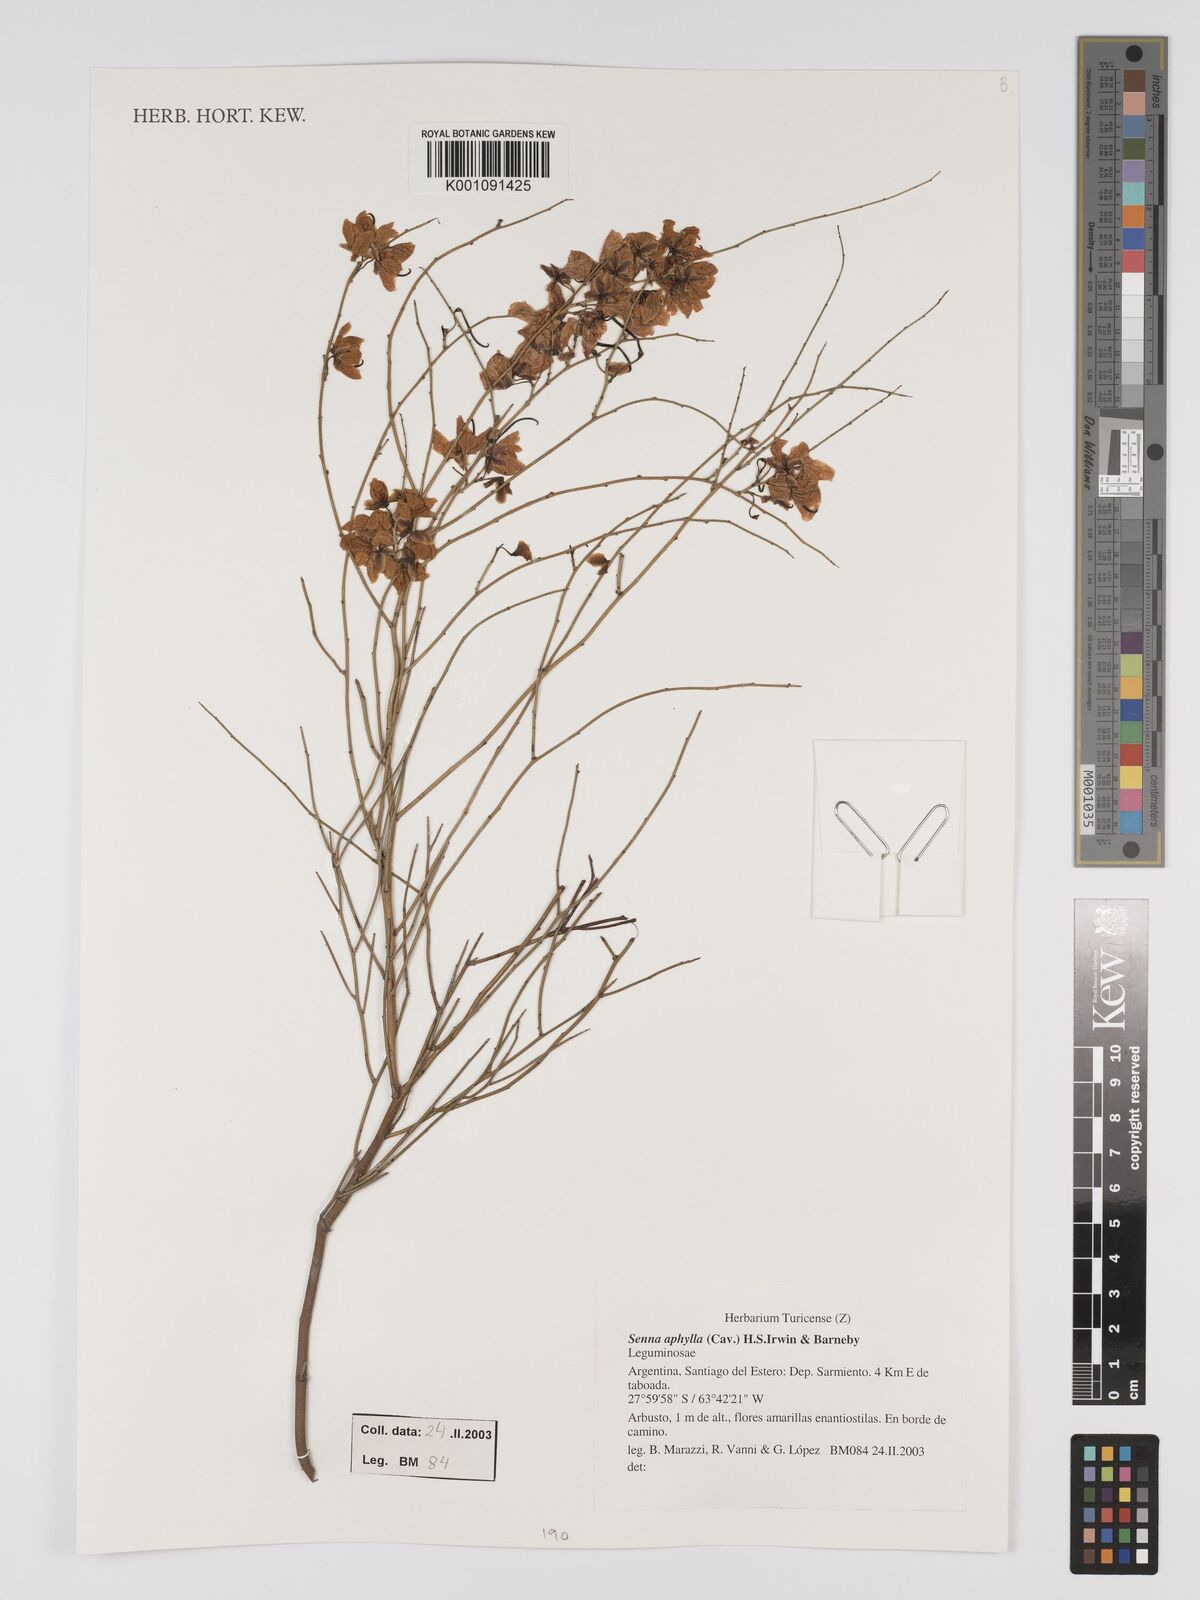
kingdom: Plantae
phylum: Tracheophyta
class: Magnoliopsida
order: Fabales
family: Fabaceae
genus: Senna
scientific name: Senna aphylla
